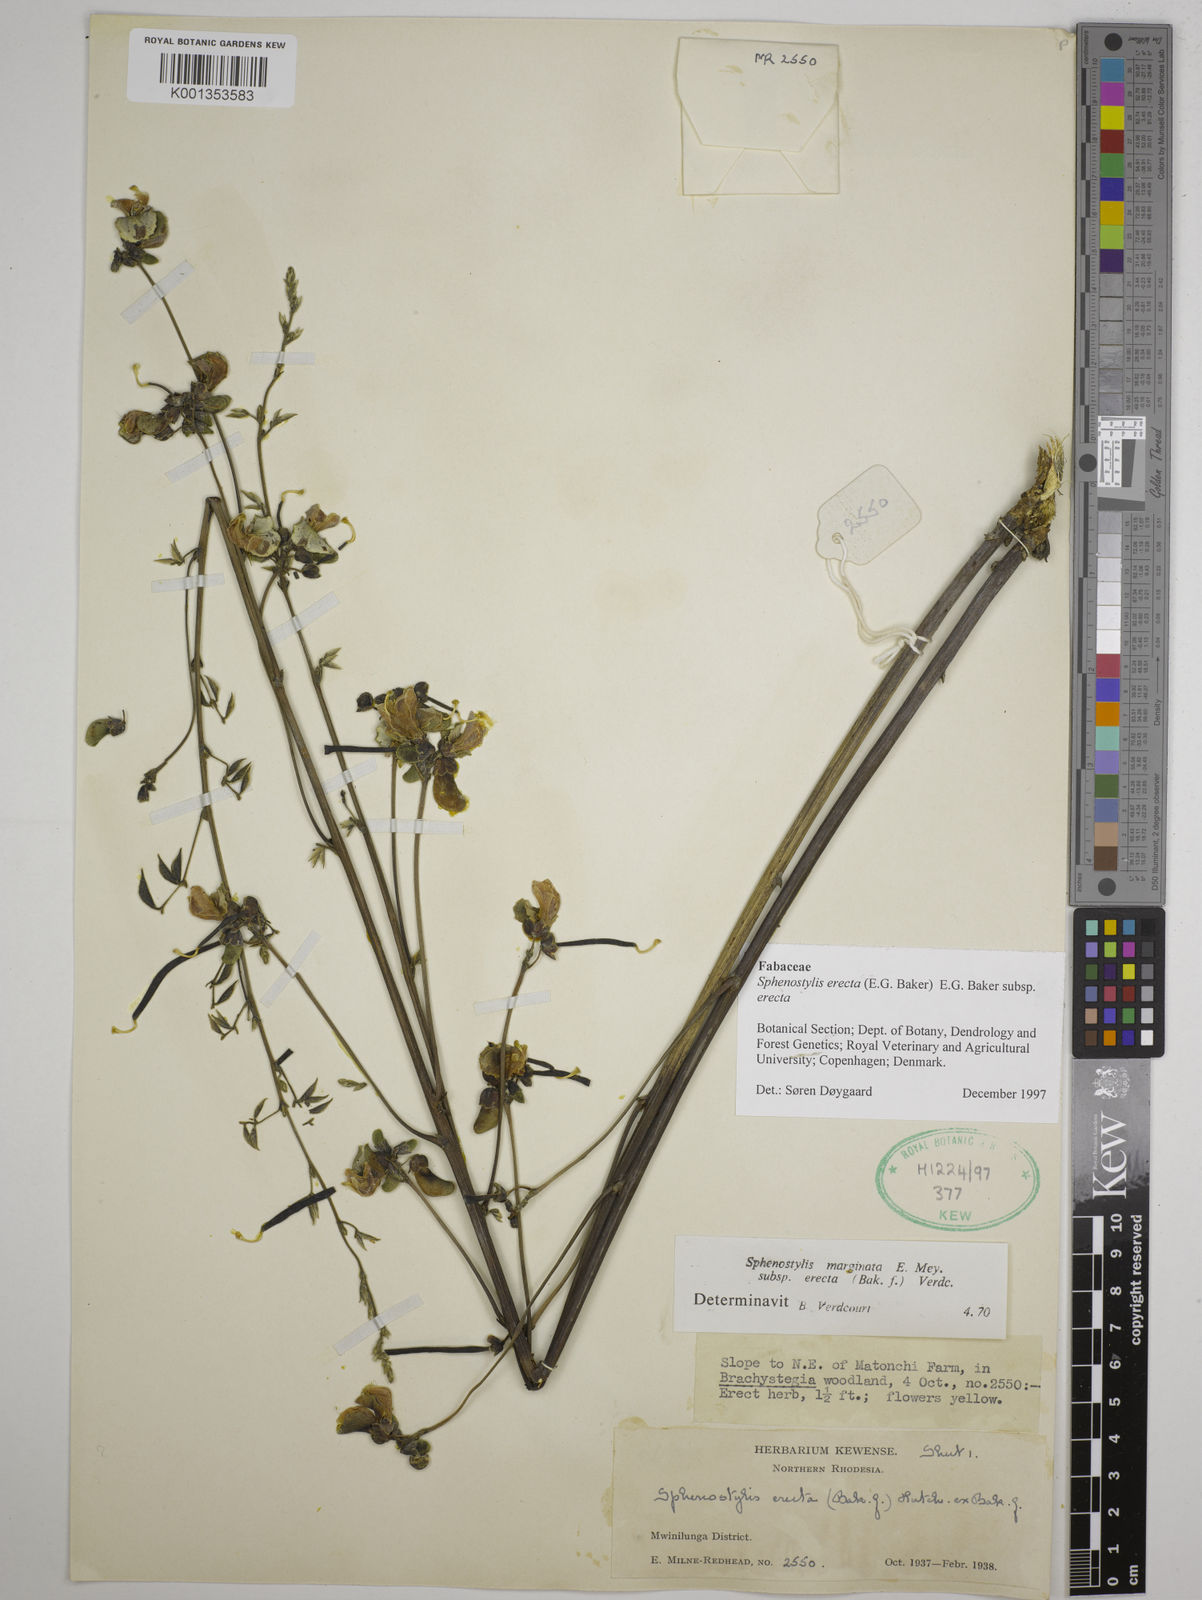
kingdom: Plantae
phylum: Tracheophyta
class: Magnoliopsida
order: Fabales
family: Fabaceae
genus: Sphenostylis
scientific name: Sphenostylis erecta
